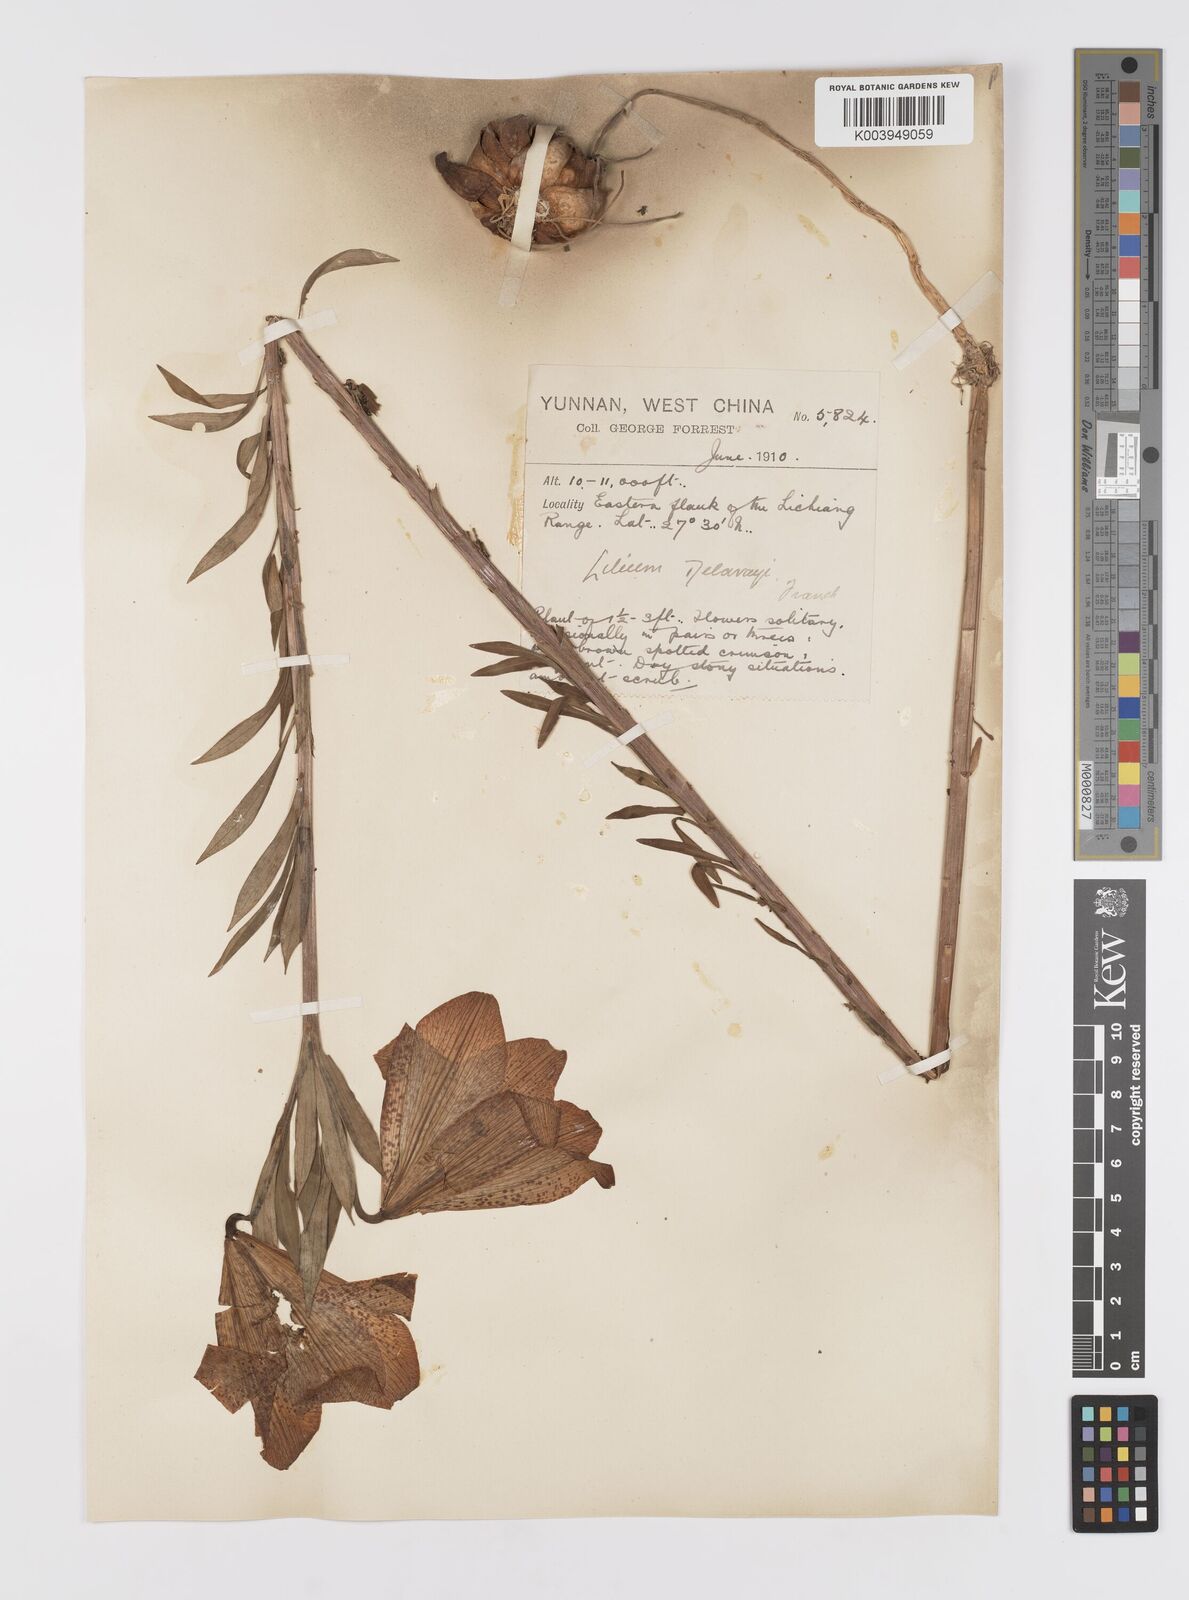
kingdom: Plantae
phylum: Tracheophyta
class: Liliopsida
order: Liliales
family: Liliaceae
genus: Lilium
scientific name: Lilium bakerianum
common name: Baker's lily
